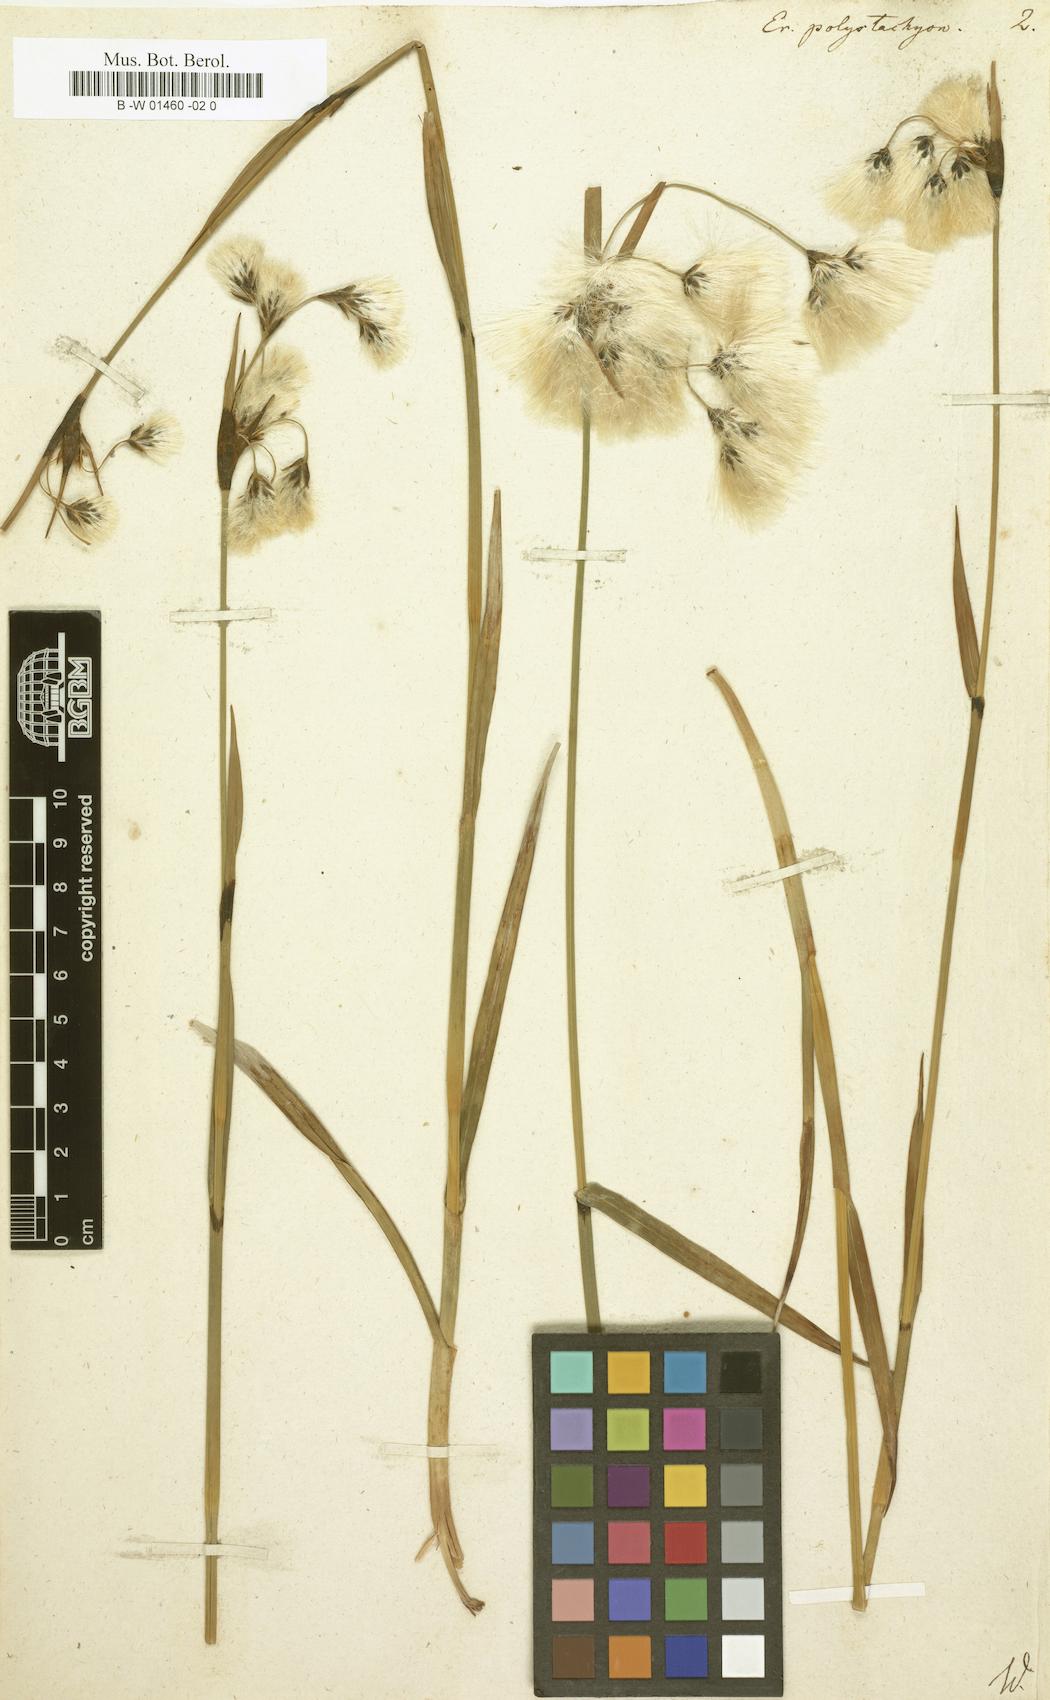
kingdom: Plantae
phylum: Tracheophyta
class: Liliopsida
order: Poales
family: Cyperaceae
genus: Eriophorum
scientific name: Eriophorum angustifolium
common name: Common cottongrass
